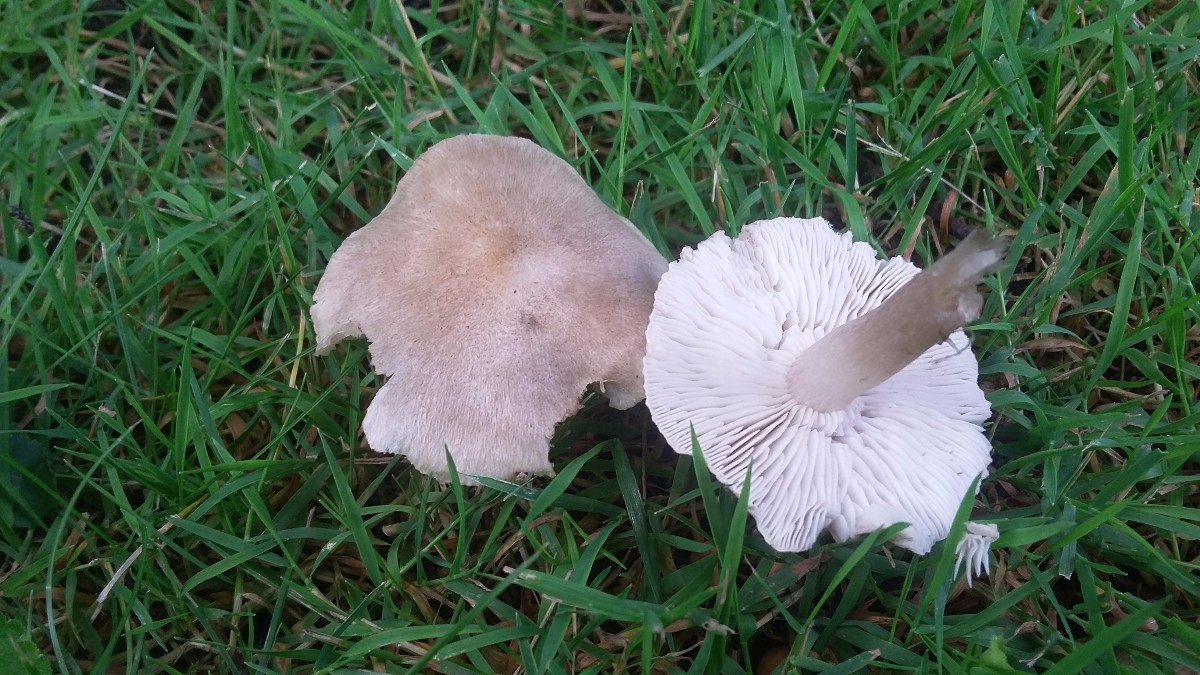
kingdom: Fungi
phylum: Basidiomycota
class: Agaricomycetes
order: Agaricales
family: Tricholomataceae
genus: Tricholoma
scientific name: Tricholoma argyraceum
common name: spids ridderhat
